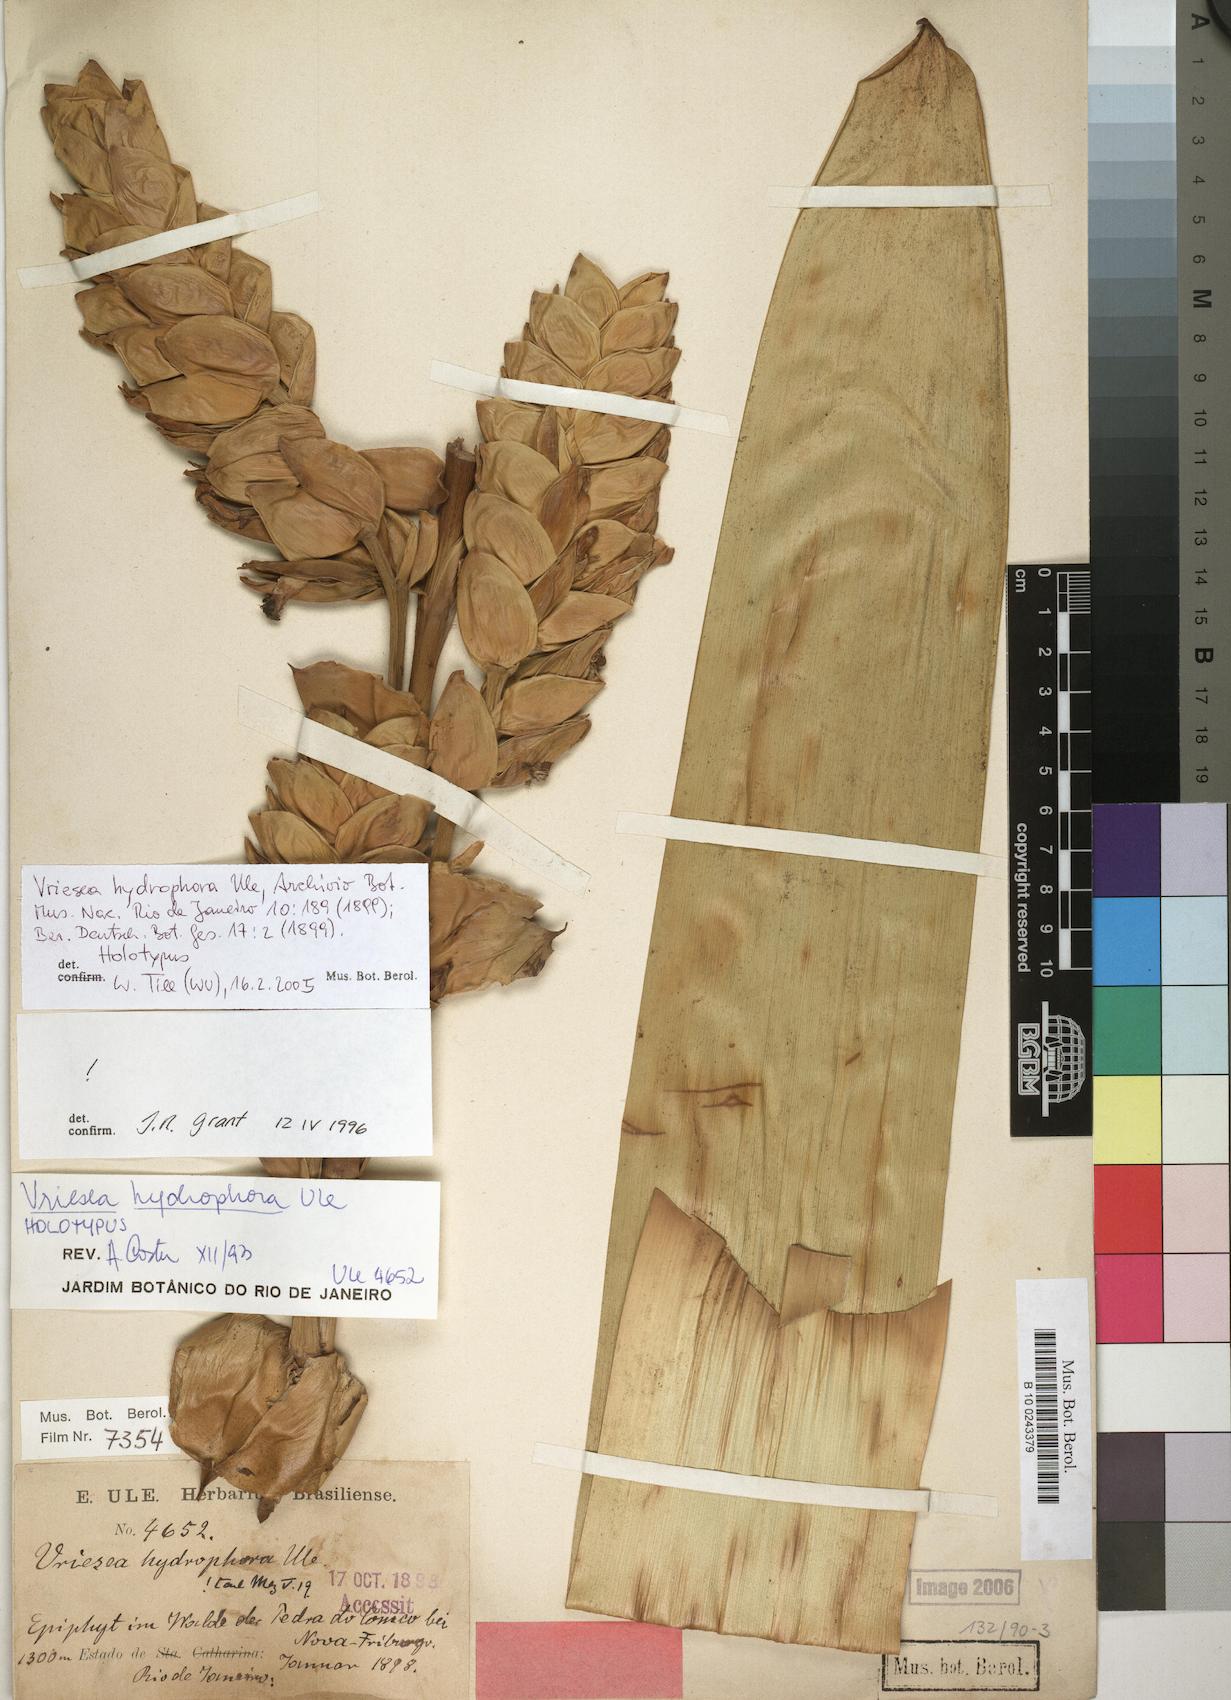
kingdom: Plantae
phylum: Tracheophyta
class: Liliopsida
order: Poales
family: Bromeliaceae
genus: Vriesea
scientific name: Vriesea hydrophora
